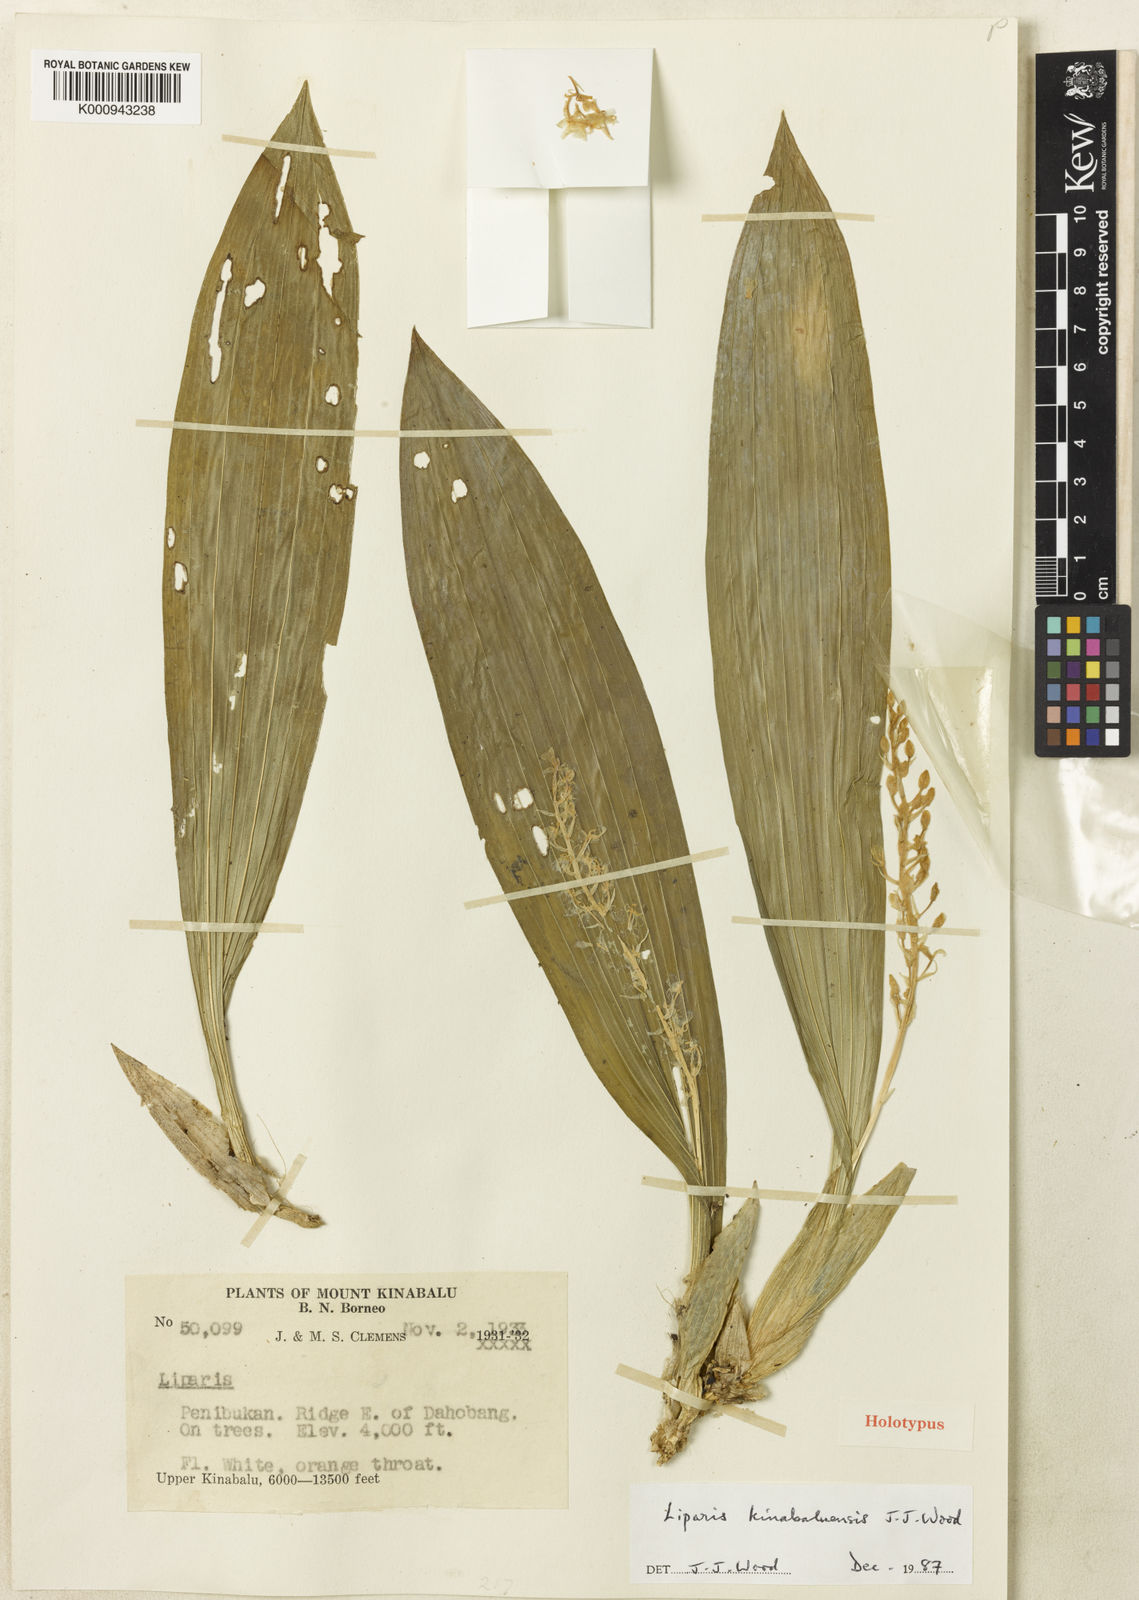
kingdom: Plantae
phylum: Tracheophyta
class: Liliopsida
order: Asparagales
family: Orchidaceae
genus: Liparis
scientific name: Liparis kinabaluensis
